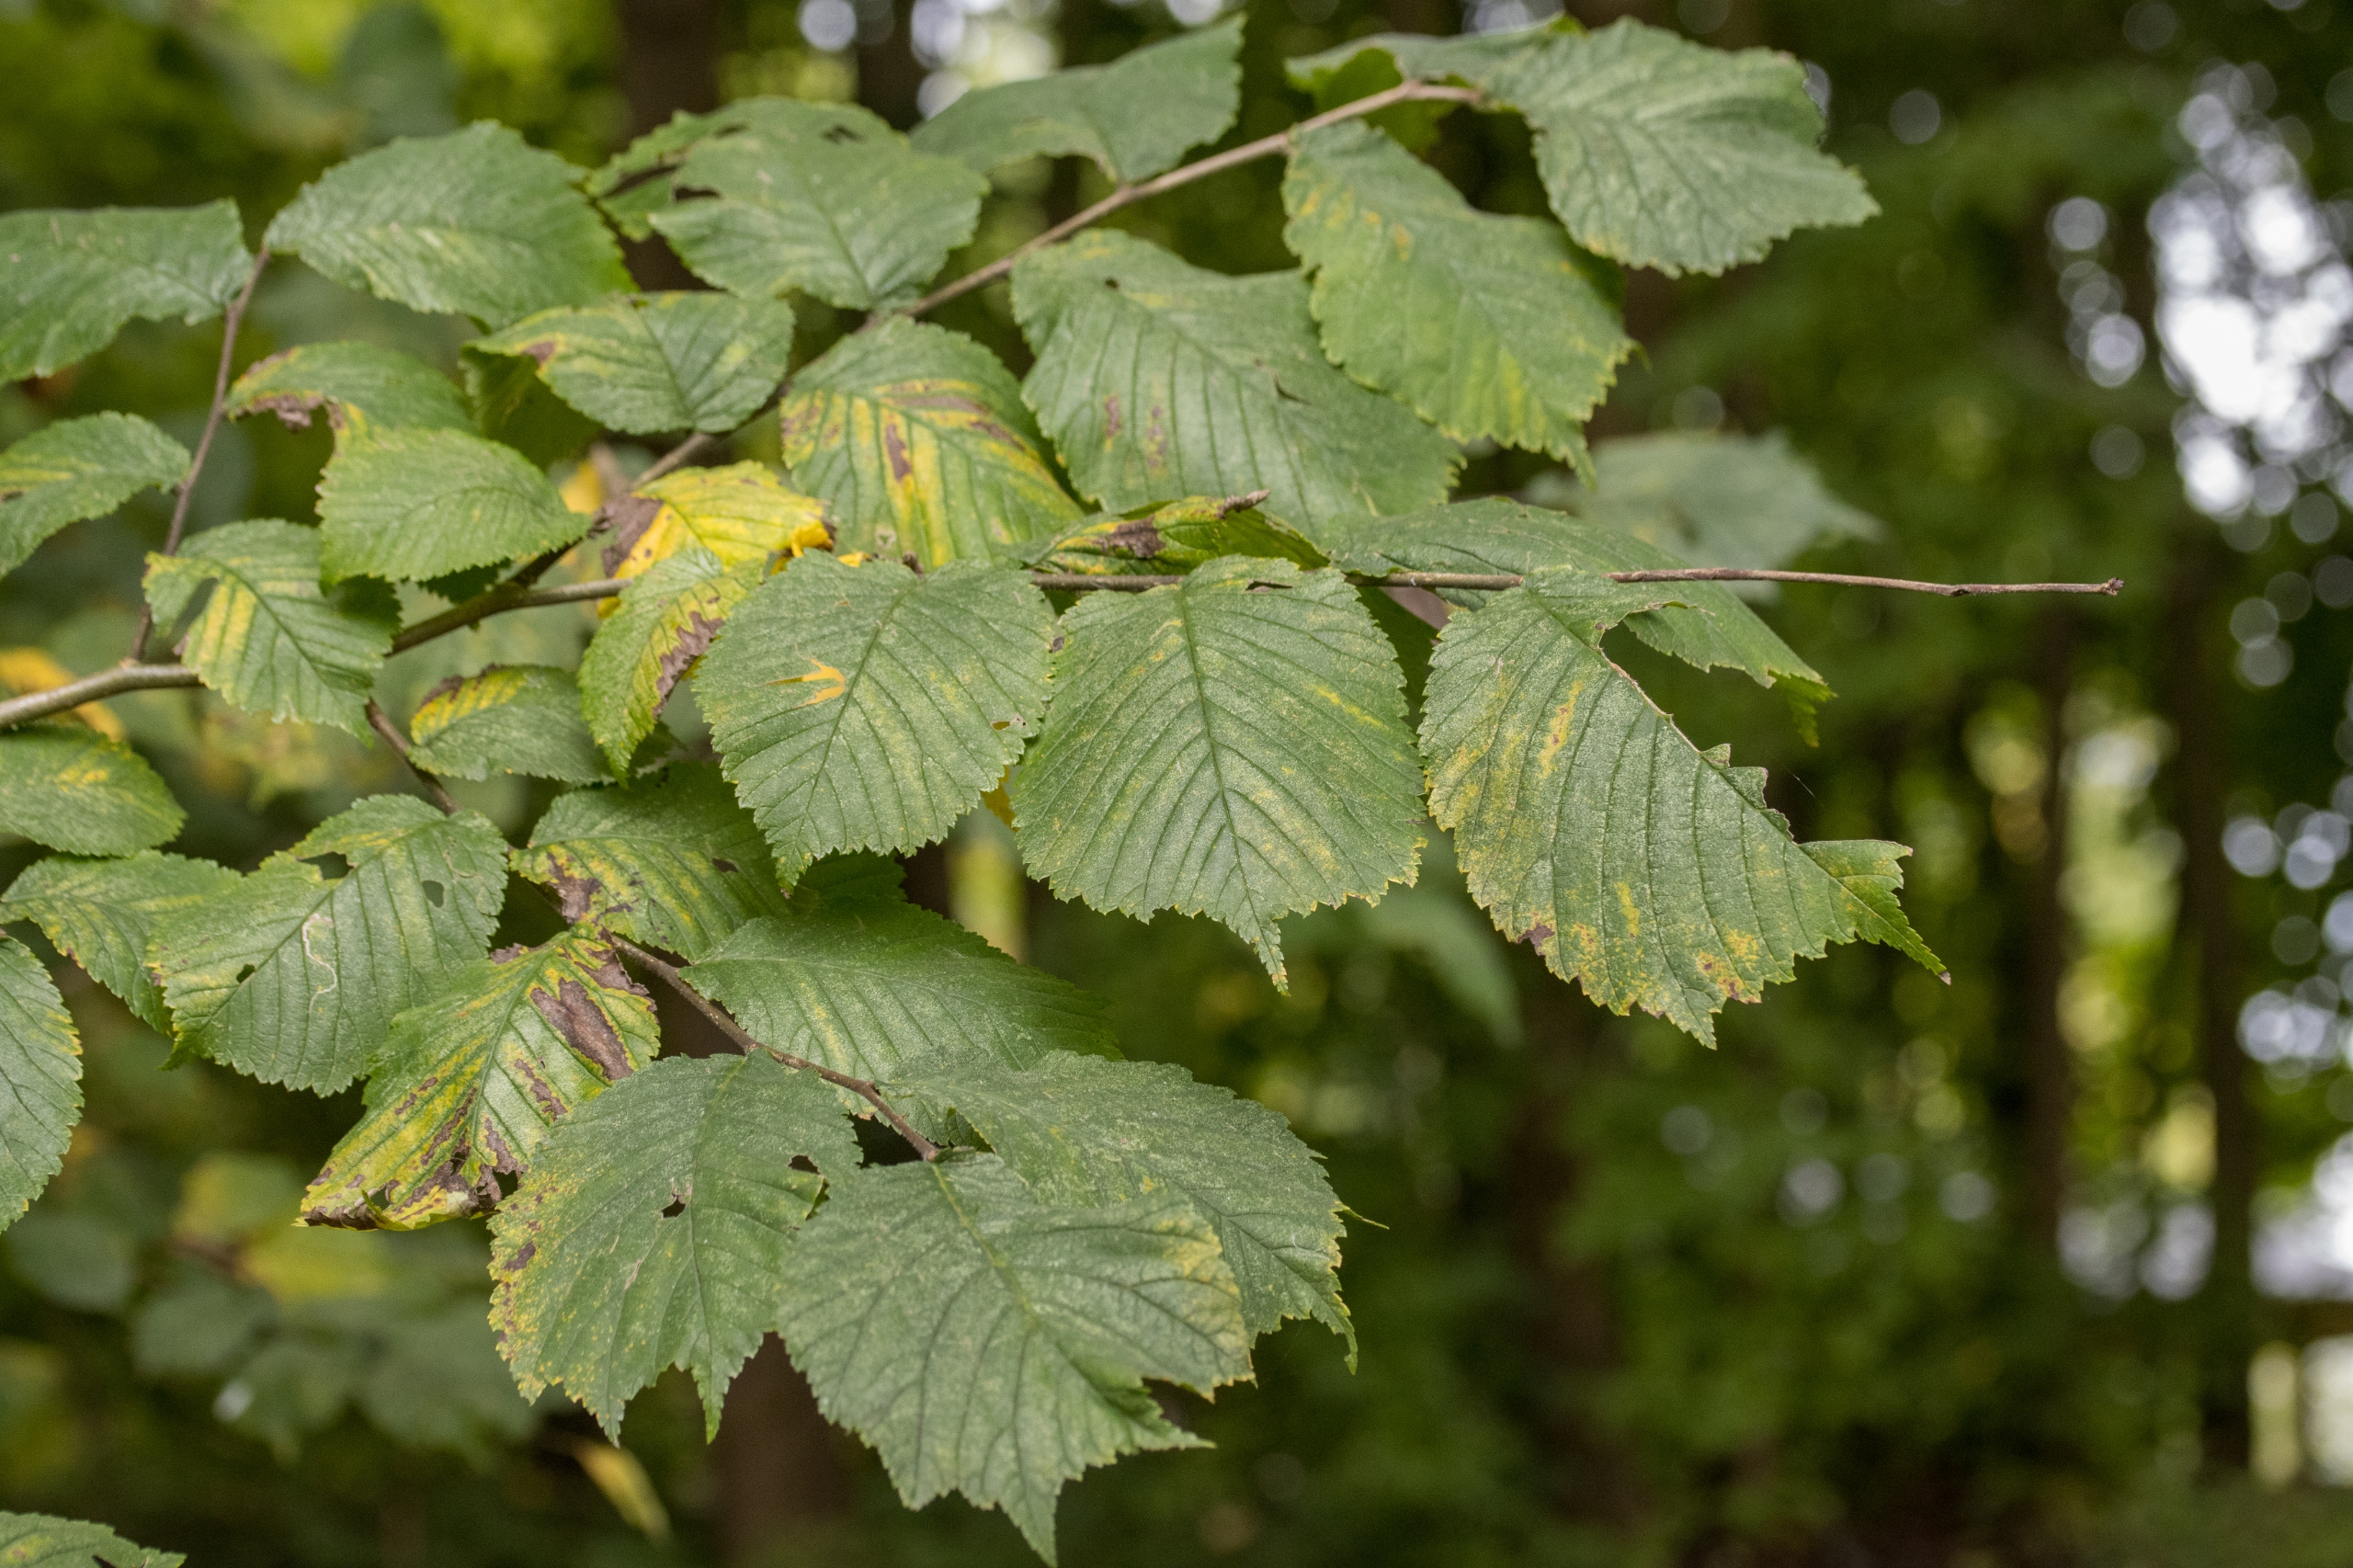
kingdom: Plantae
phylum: Tracheophyta
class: Magnoliopsida
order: Rosales
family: Ulmaceae
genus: Ulmus
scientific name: Ulmus glabra
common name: Skov-elm/storbladet elm
